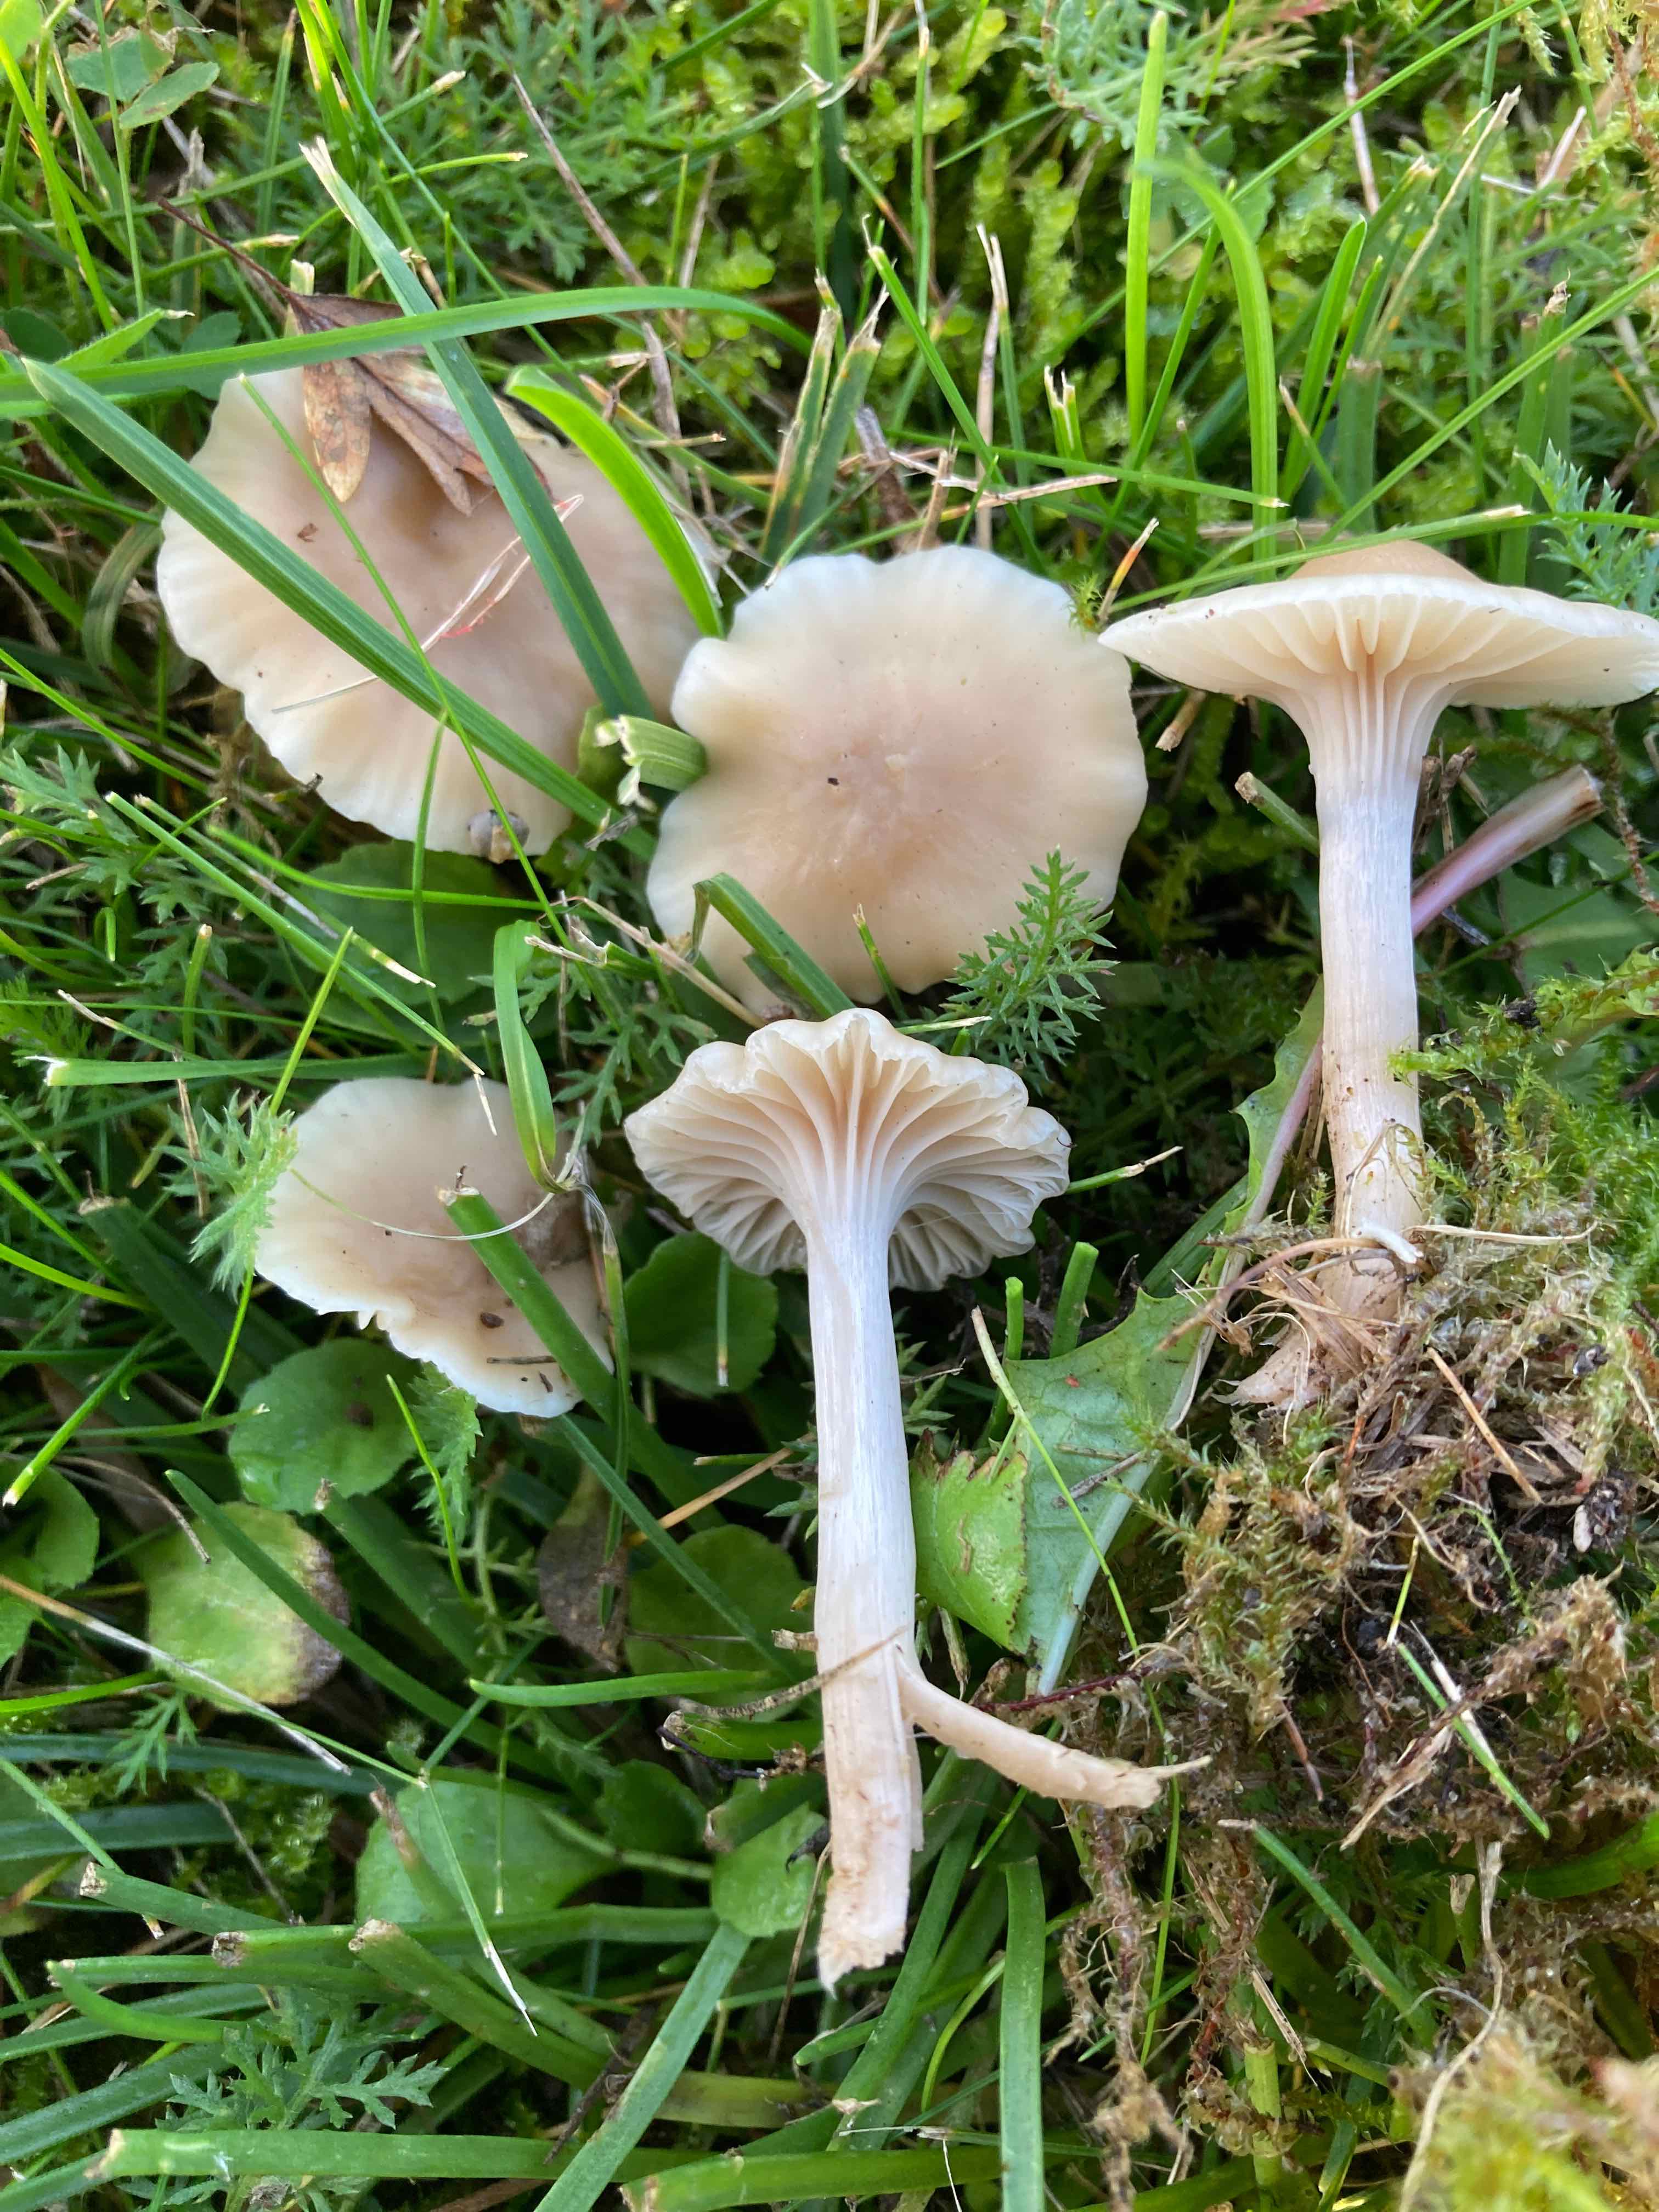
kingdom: Fungi
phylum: Basidiomycota
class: Agaricomycetes
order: Agaricales
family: Hygrophoraceae
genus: Cuphophyllus
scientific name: Cuphophyllus virgineus
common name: isabella-vokshat
